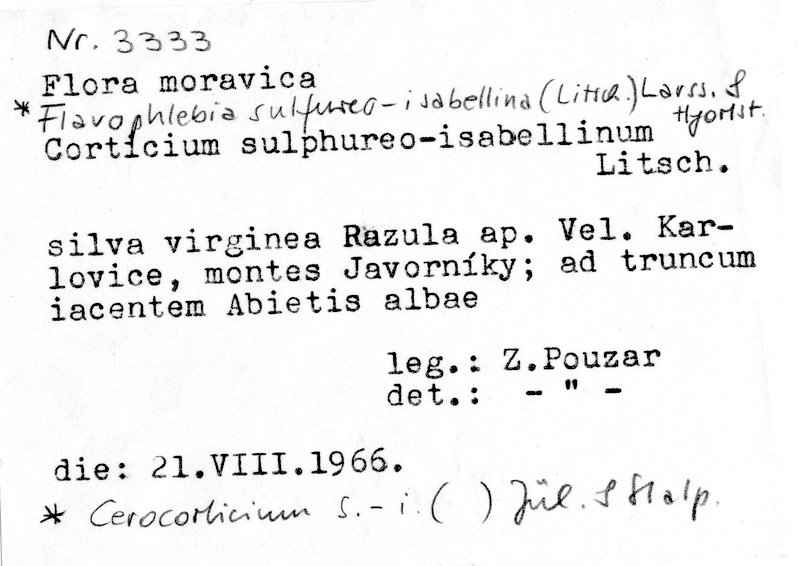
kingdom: Plantae
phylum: Tracheophyta
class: Pinopsida
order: Pinales
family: Pinaceae
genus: Abies
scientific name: Abies alba
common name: Silver fir
